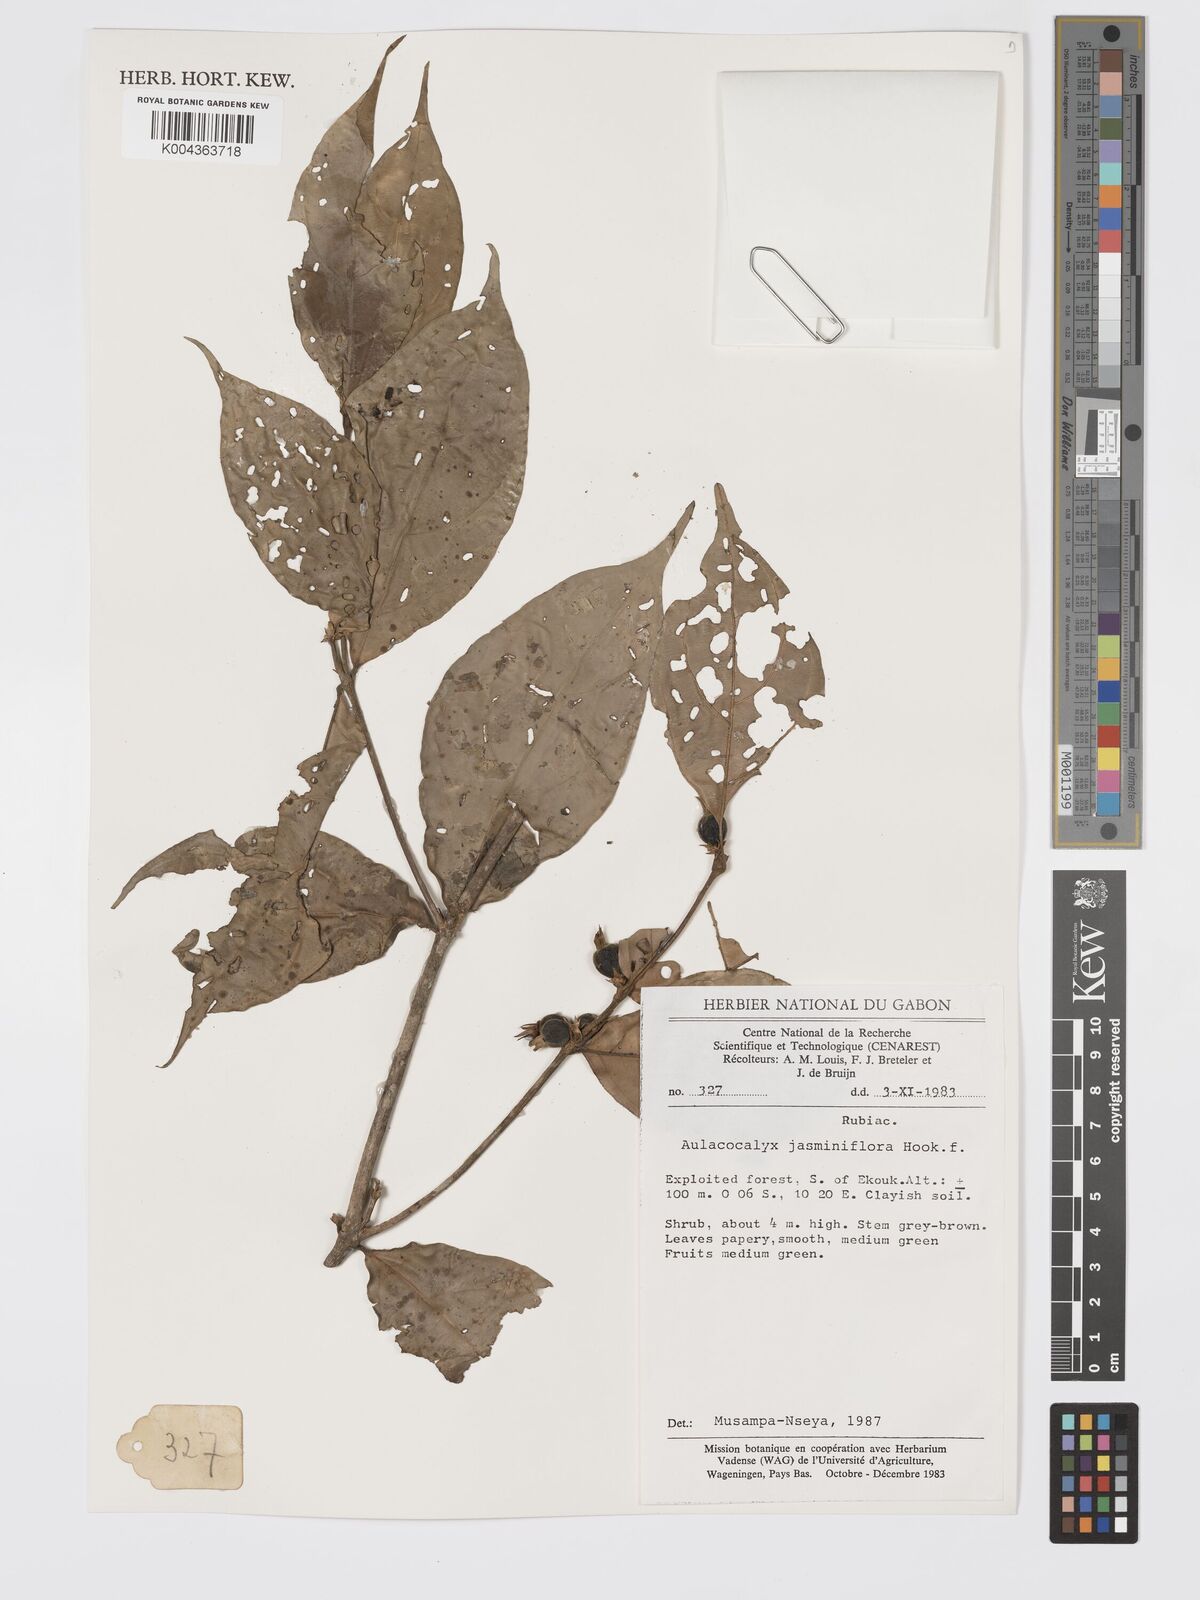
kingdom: Plantae
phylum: Tracheophyta
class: Magnoliopsida
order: Gentianales
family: Rubiaceae
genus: Aulacocalyx
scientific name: Aulacocalyx jasminiflora
